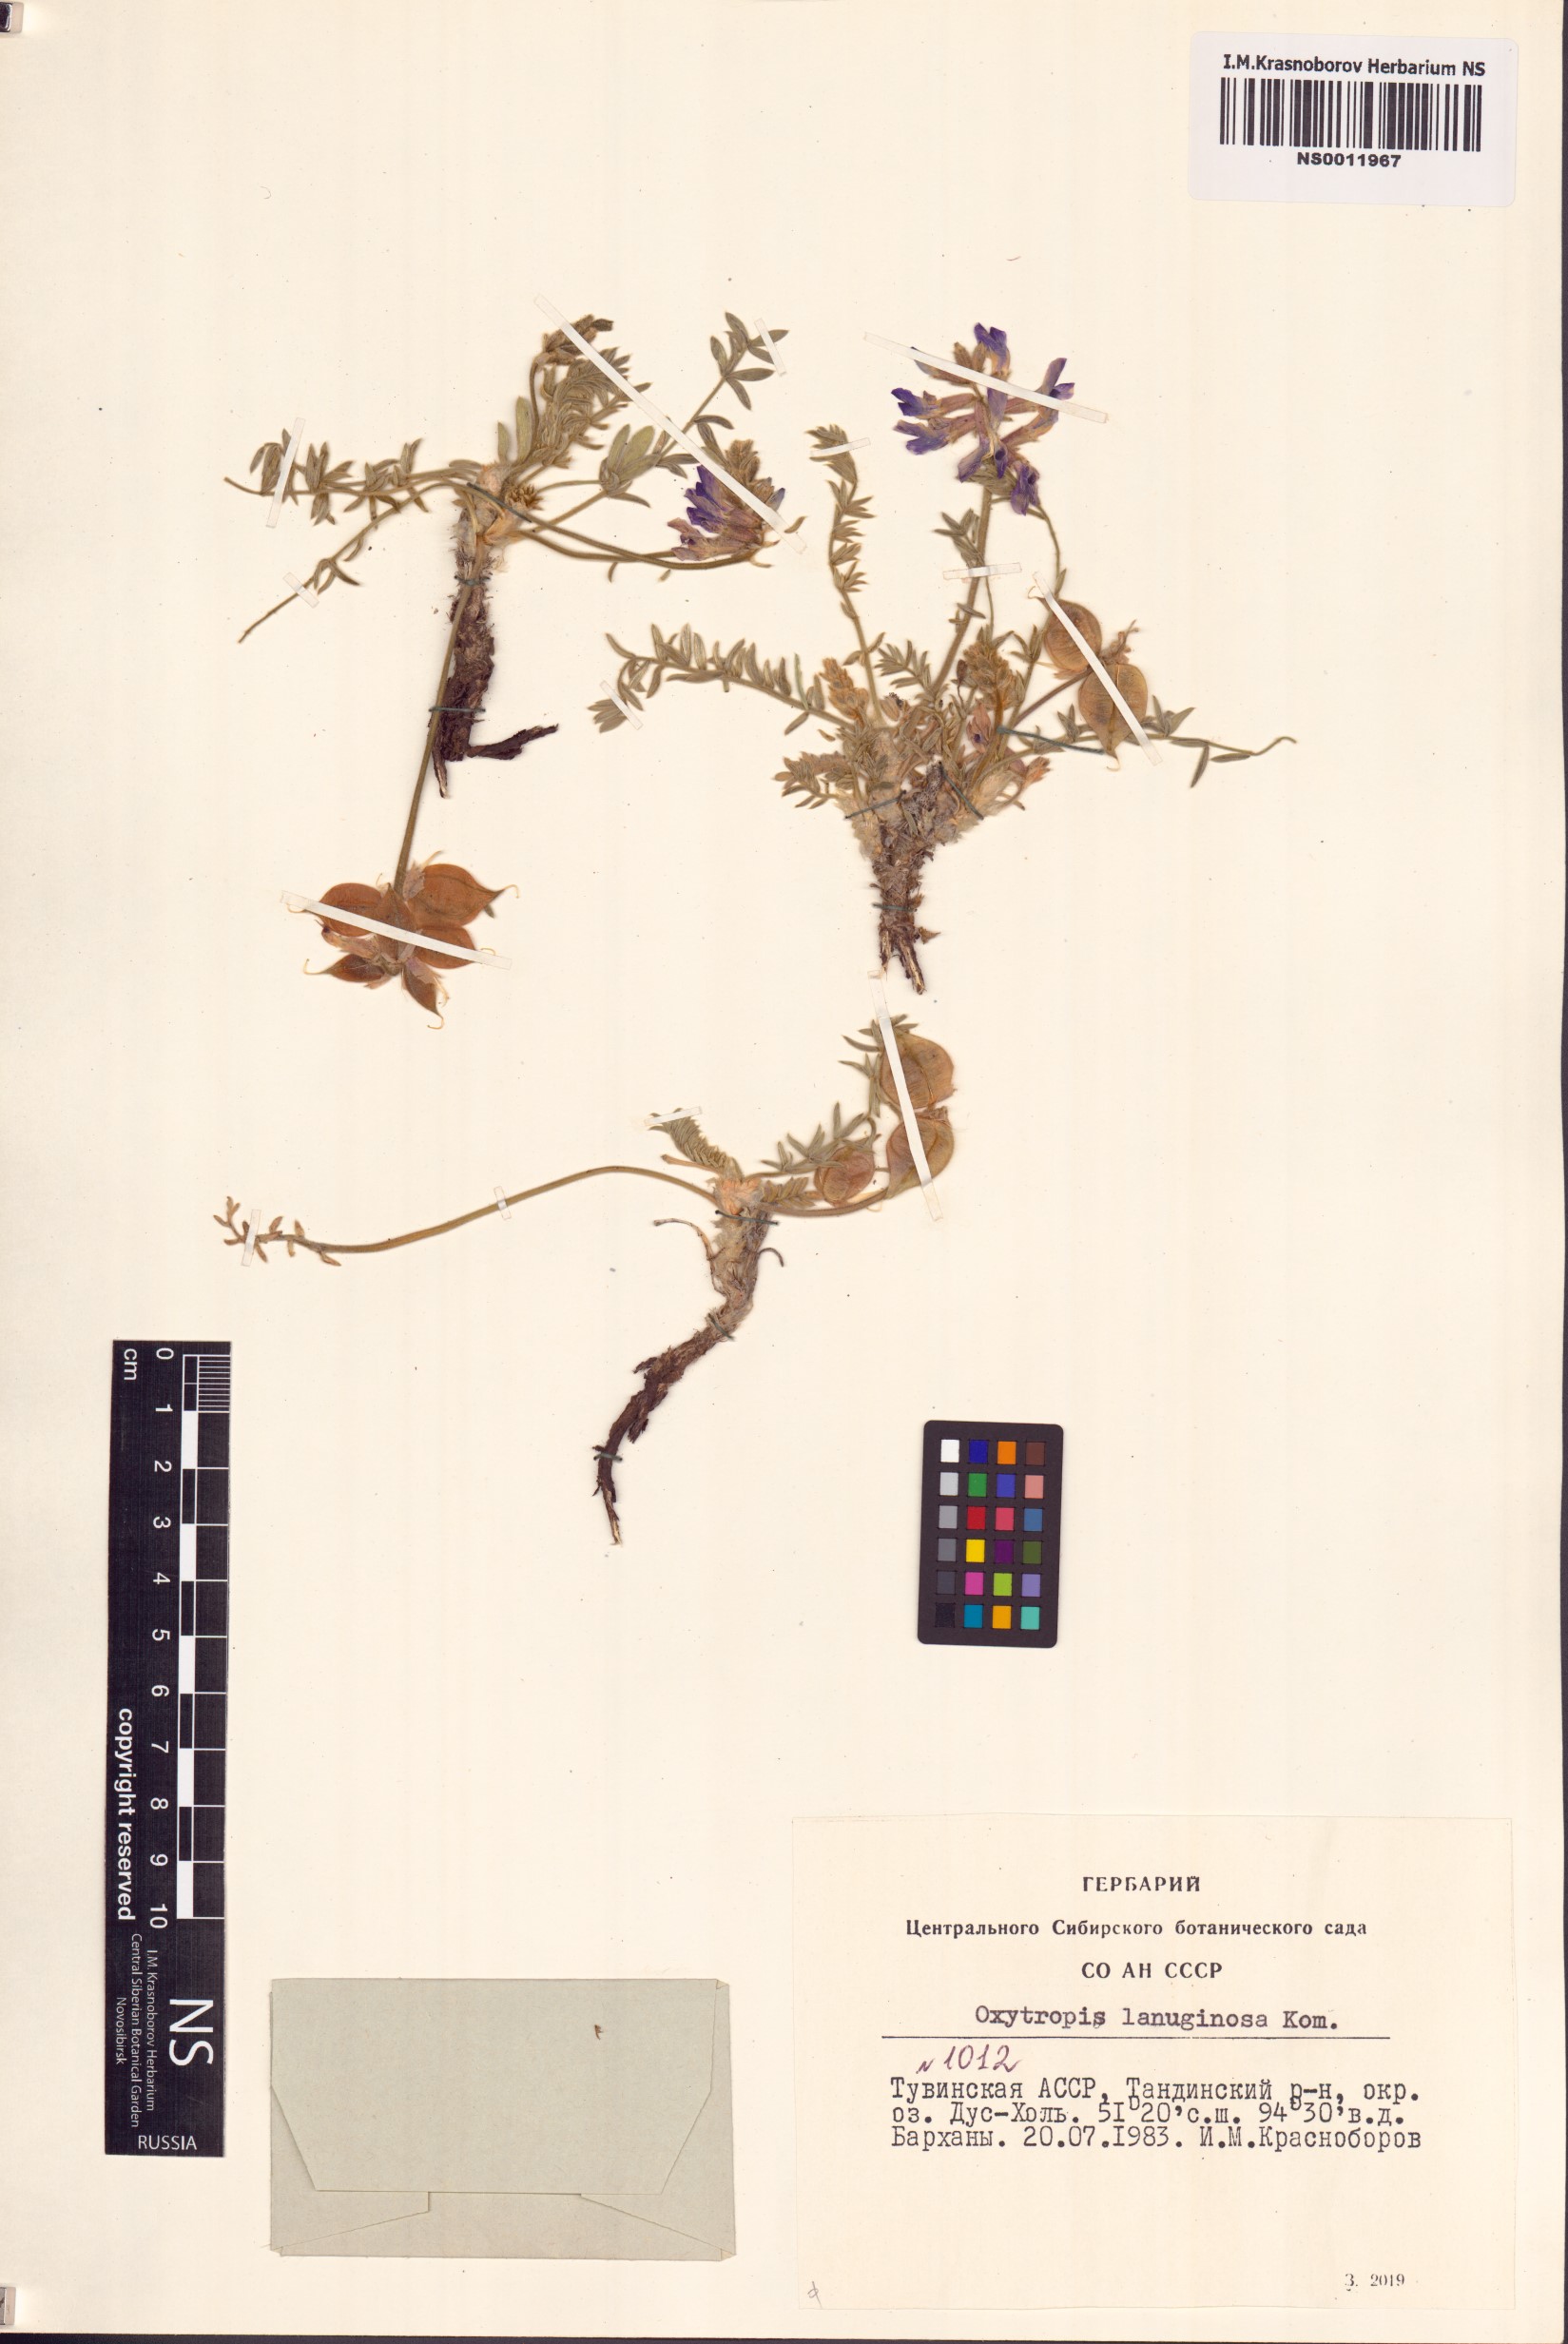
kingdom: Plantae
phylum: Tracheophyta
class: Magnoliopsida
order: Fabales
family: Fabaceae
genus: Oxytropis
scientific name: Oxytropis lanuginosa
